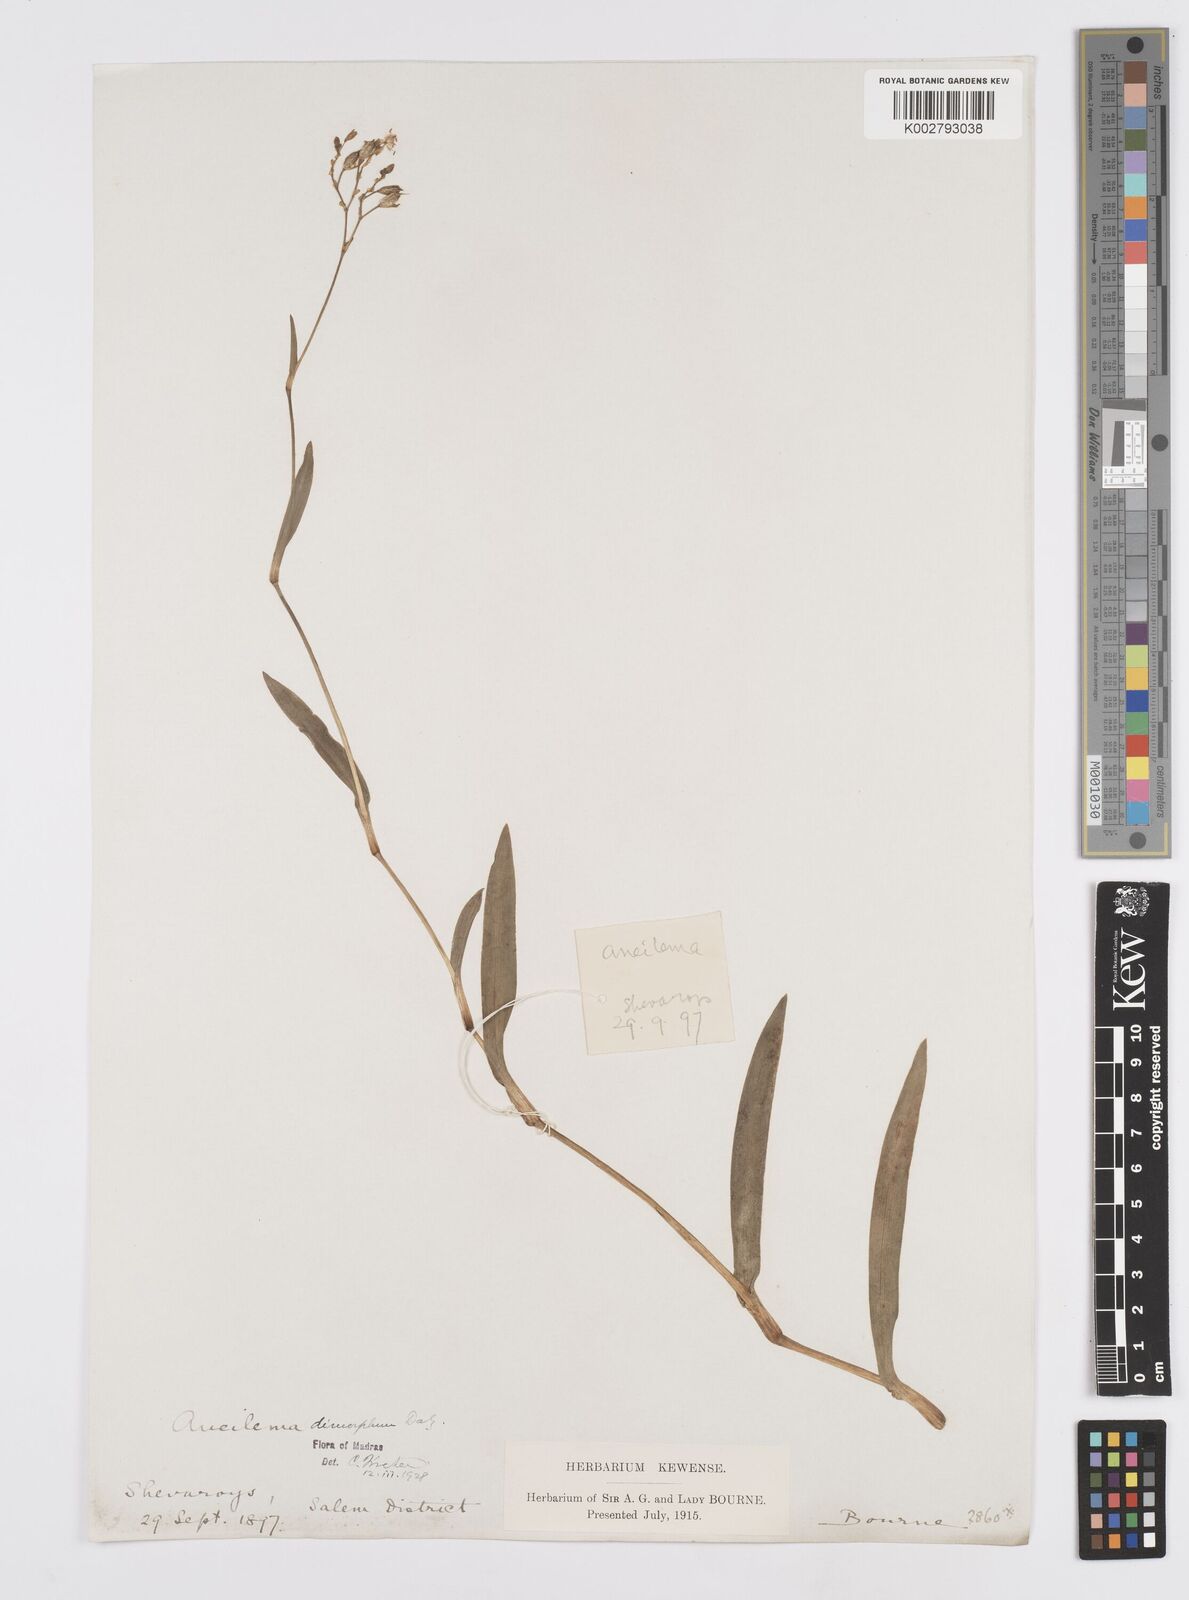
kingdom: Plantae
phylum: Tracheophyta
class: Liliopsida
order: Commelinales
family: Commelinaceae
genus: Murdannia
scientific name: Murdannia dimorpha
